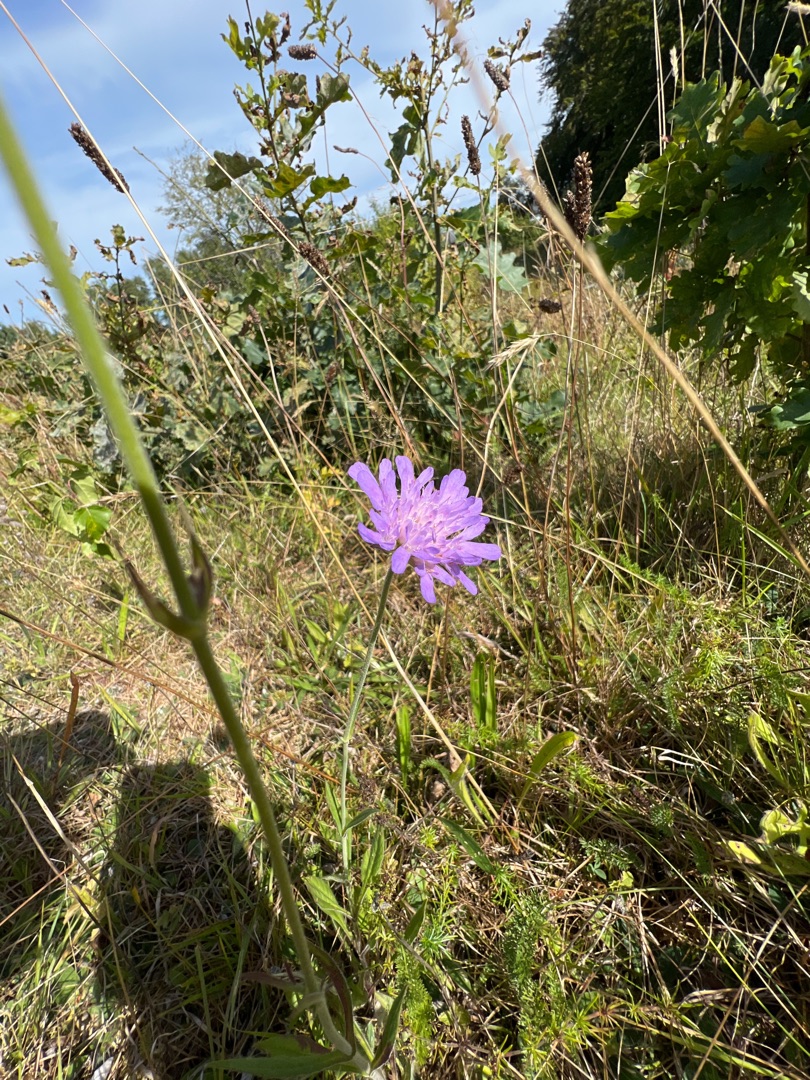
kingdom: Plantae
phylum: Tracheophyta
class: Magnoliopsida
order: Dipsacales
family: Caprifoliaceae
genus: Knautia
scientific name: Knautia arvensis
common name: Blåhat
